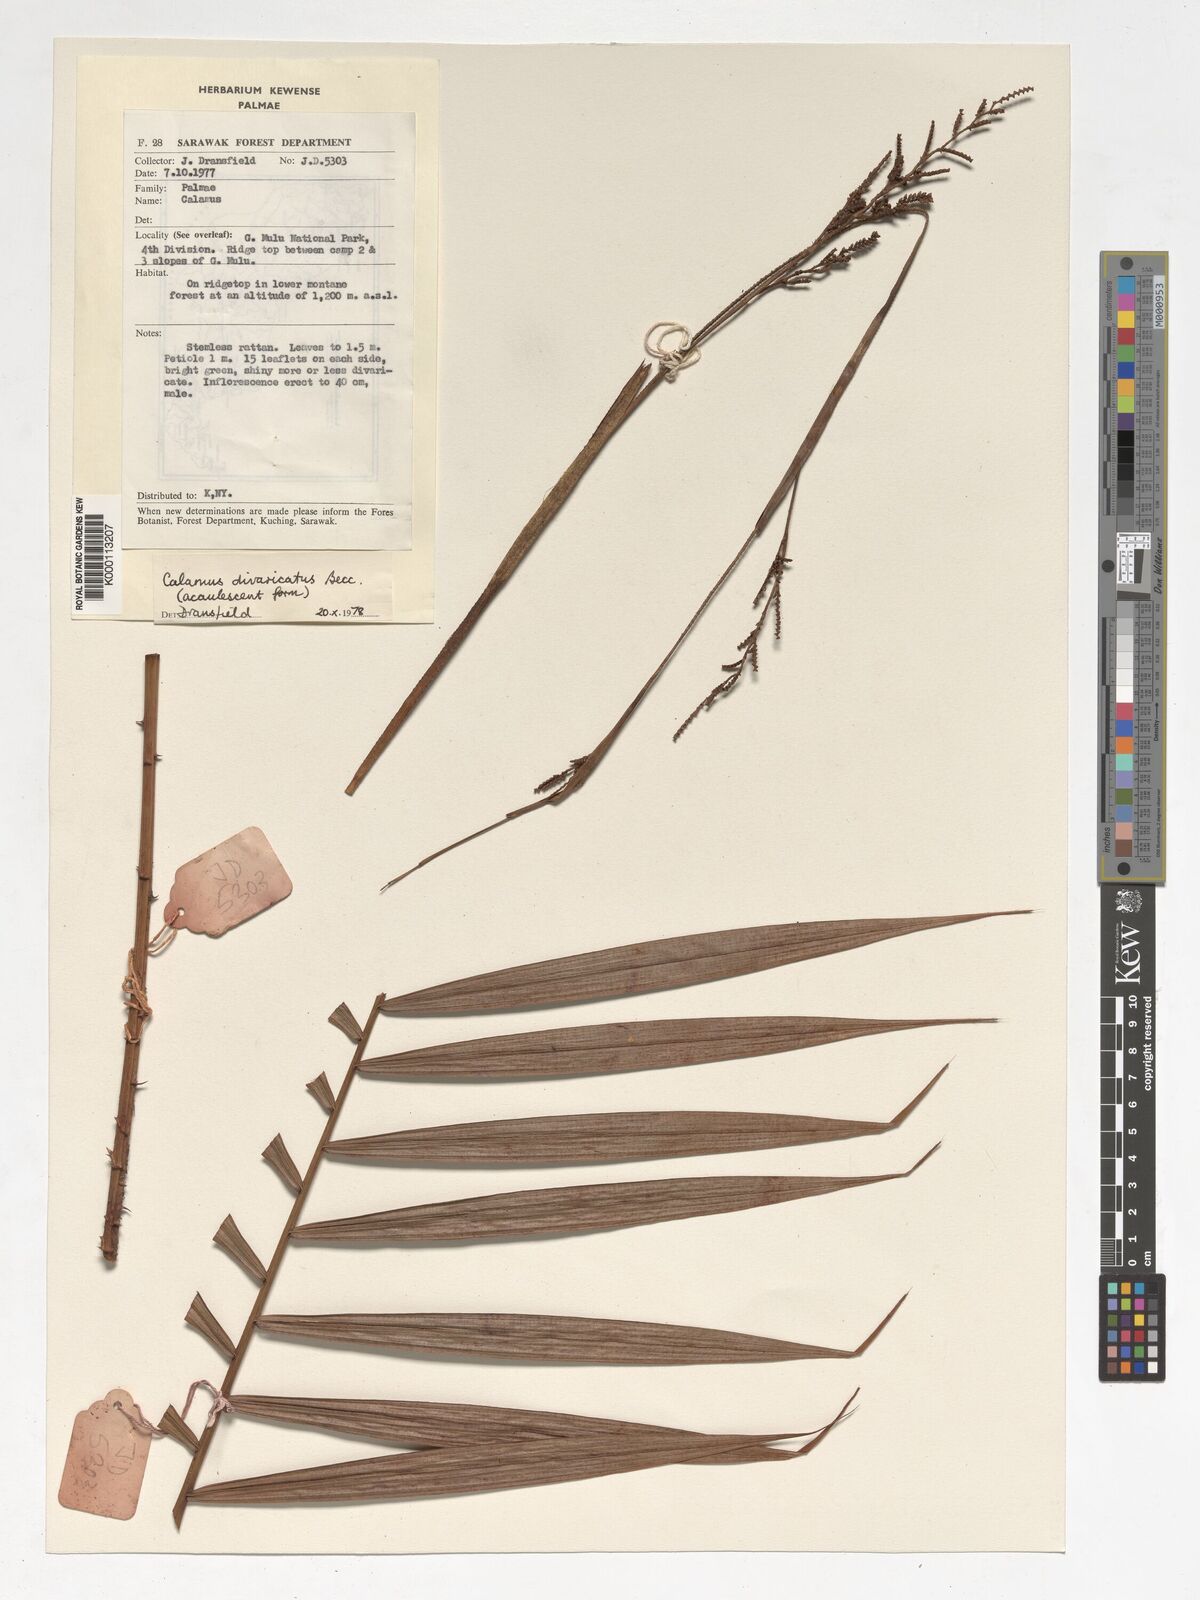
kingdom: Plantae
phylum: Tracheophyta
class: Liliopsida
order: Arecales
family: Arecaceae
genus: Calamus
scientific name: Calamus divaricatus
